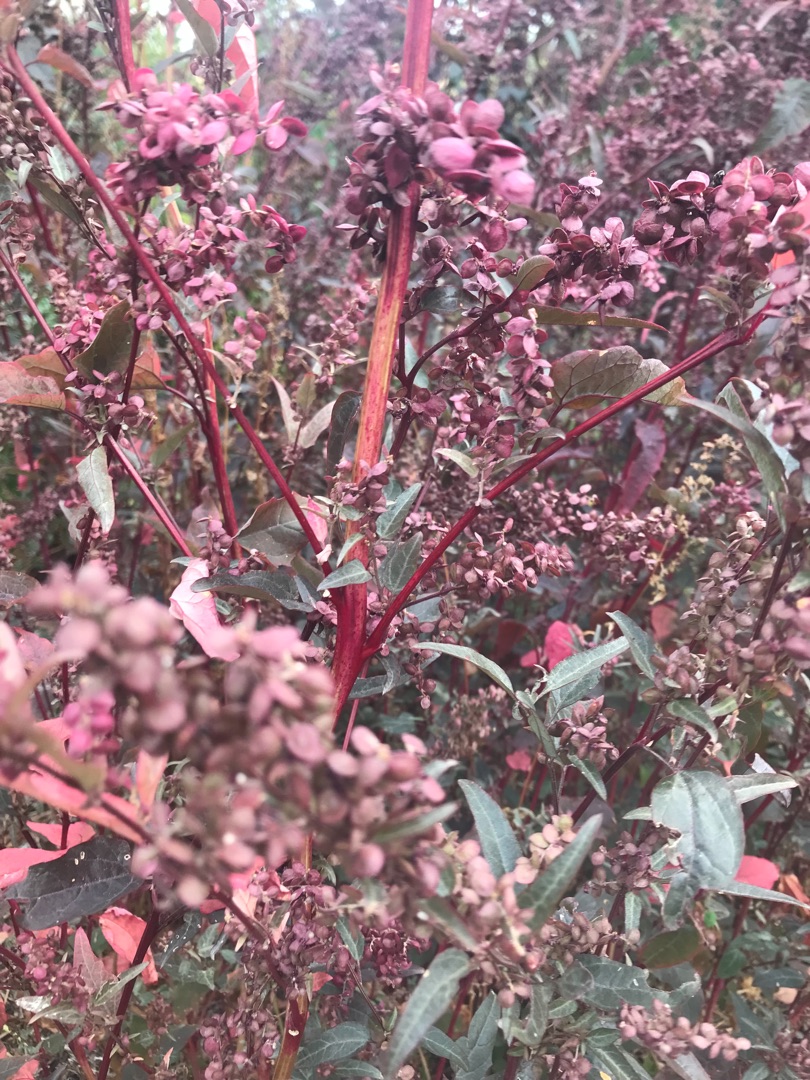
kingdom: Plantae
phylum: Tracheophyta
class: Magnoliopsida
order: Caryophyllales
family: Amaranthaceae
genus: Atriplex
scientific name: Atriplex hortensis
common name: Have-mælde
